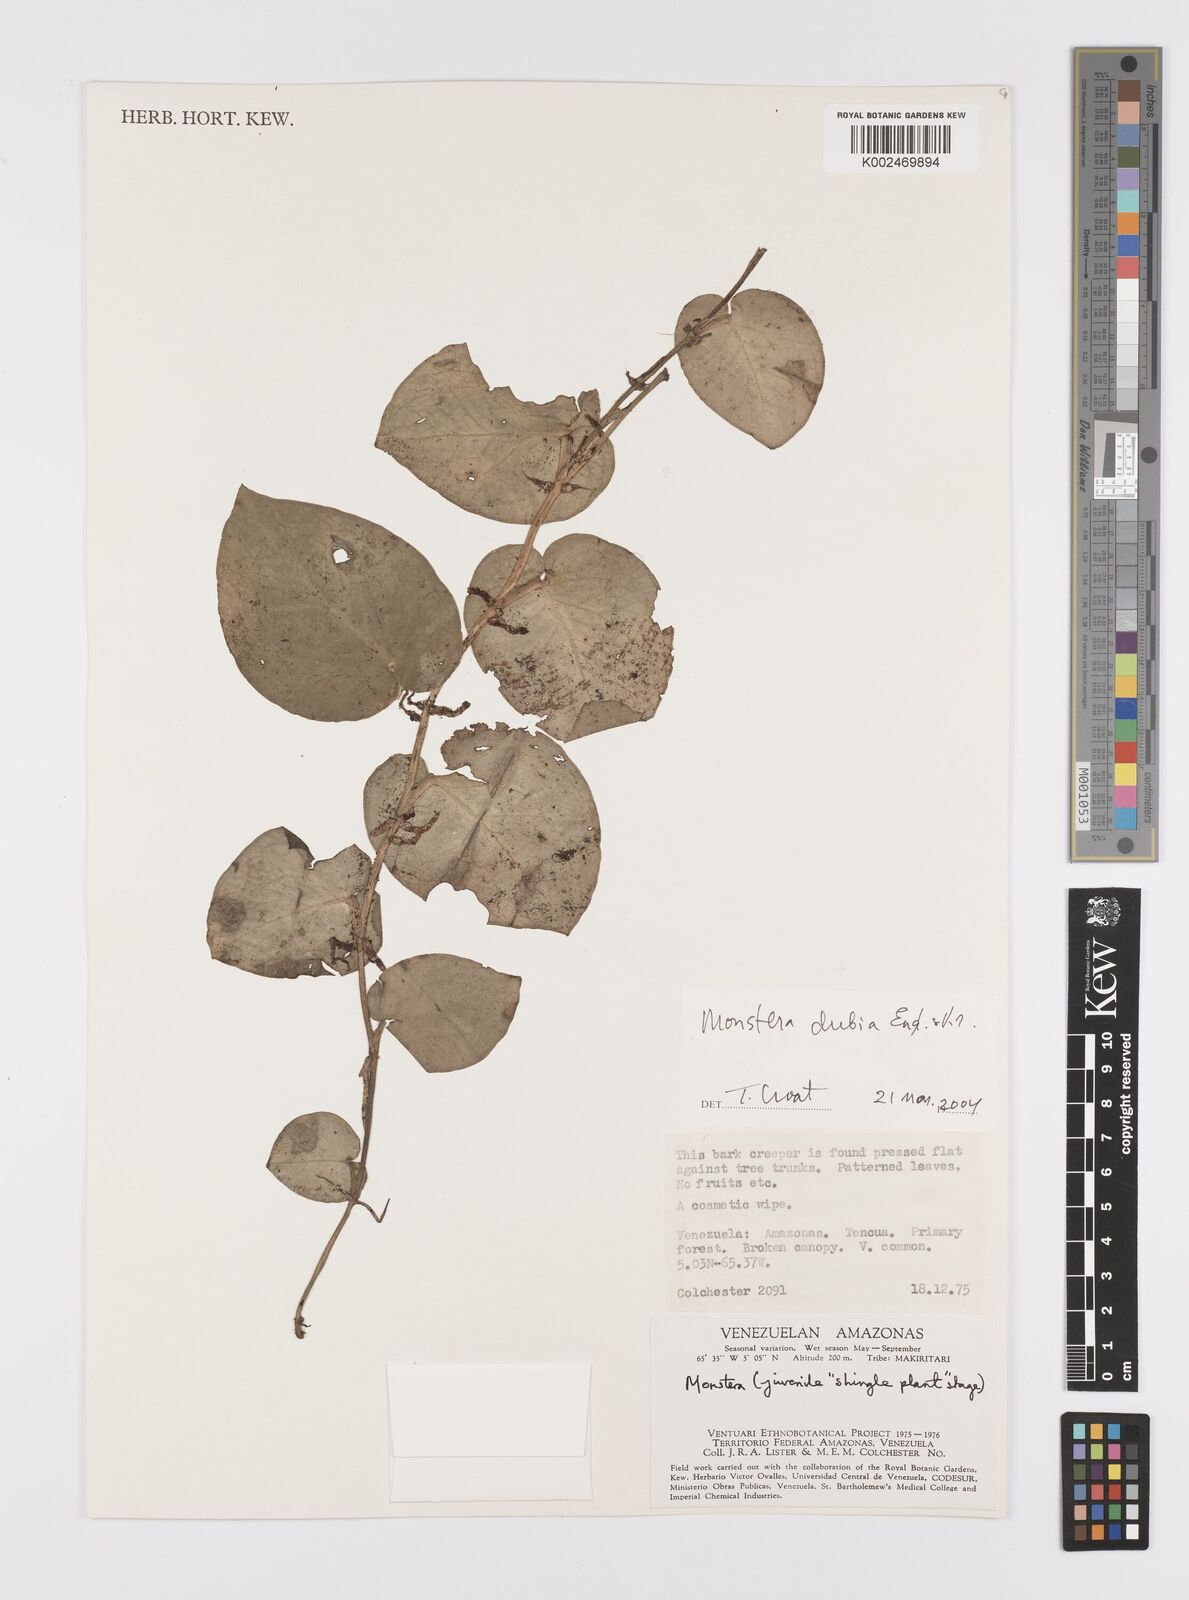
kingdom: Plantae
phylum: Tracheophyta
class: Liliopsida
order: Alismatales
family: Araceae
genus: Monstera
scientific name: Monstera dubia
